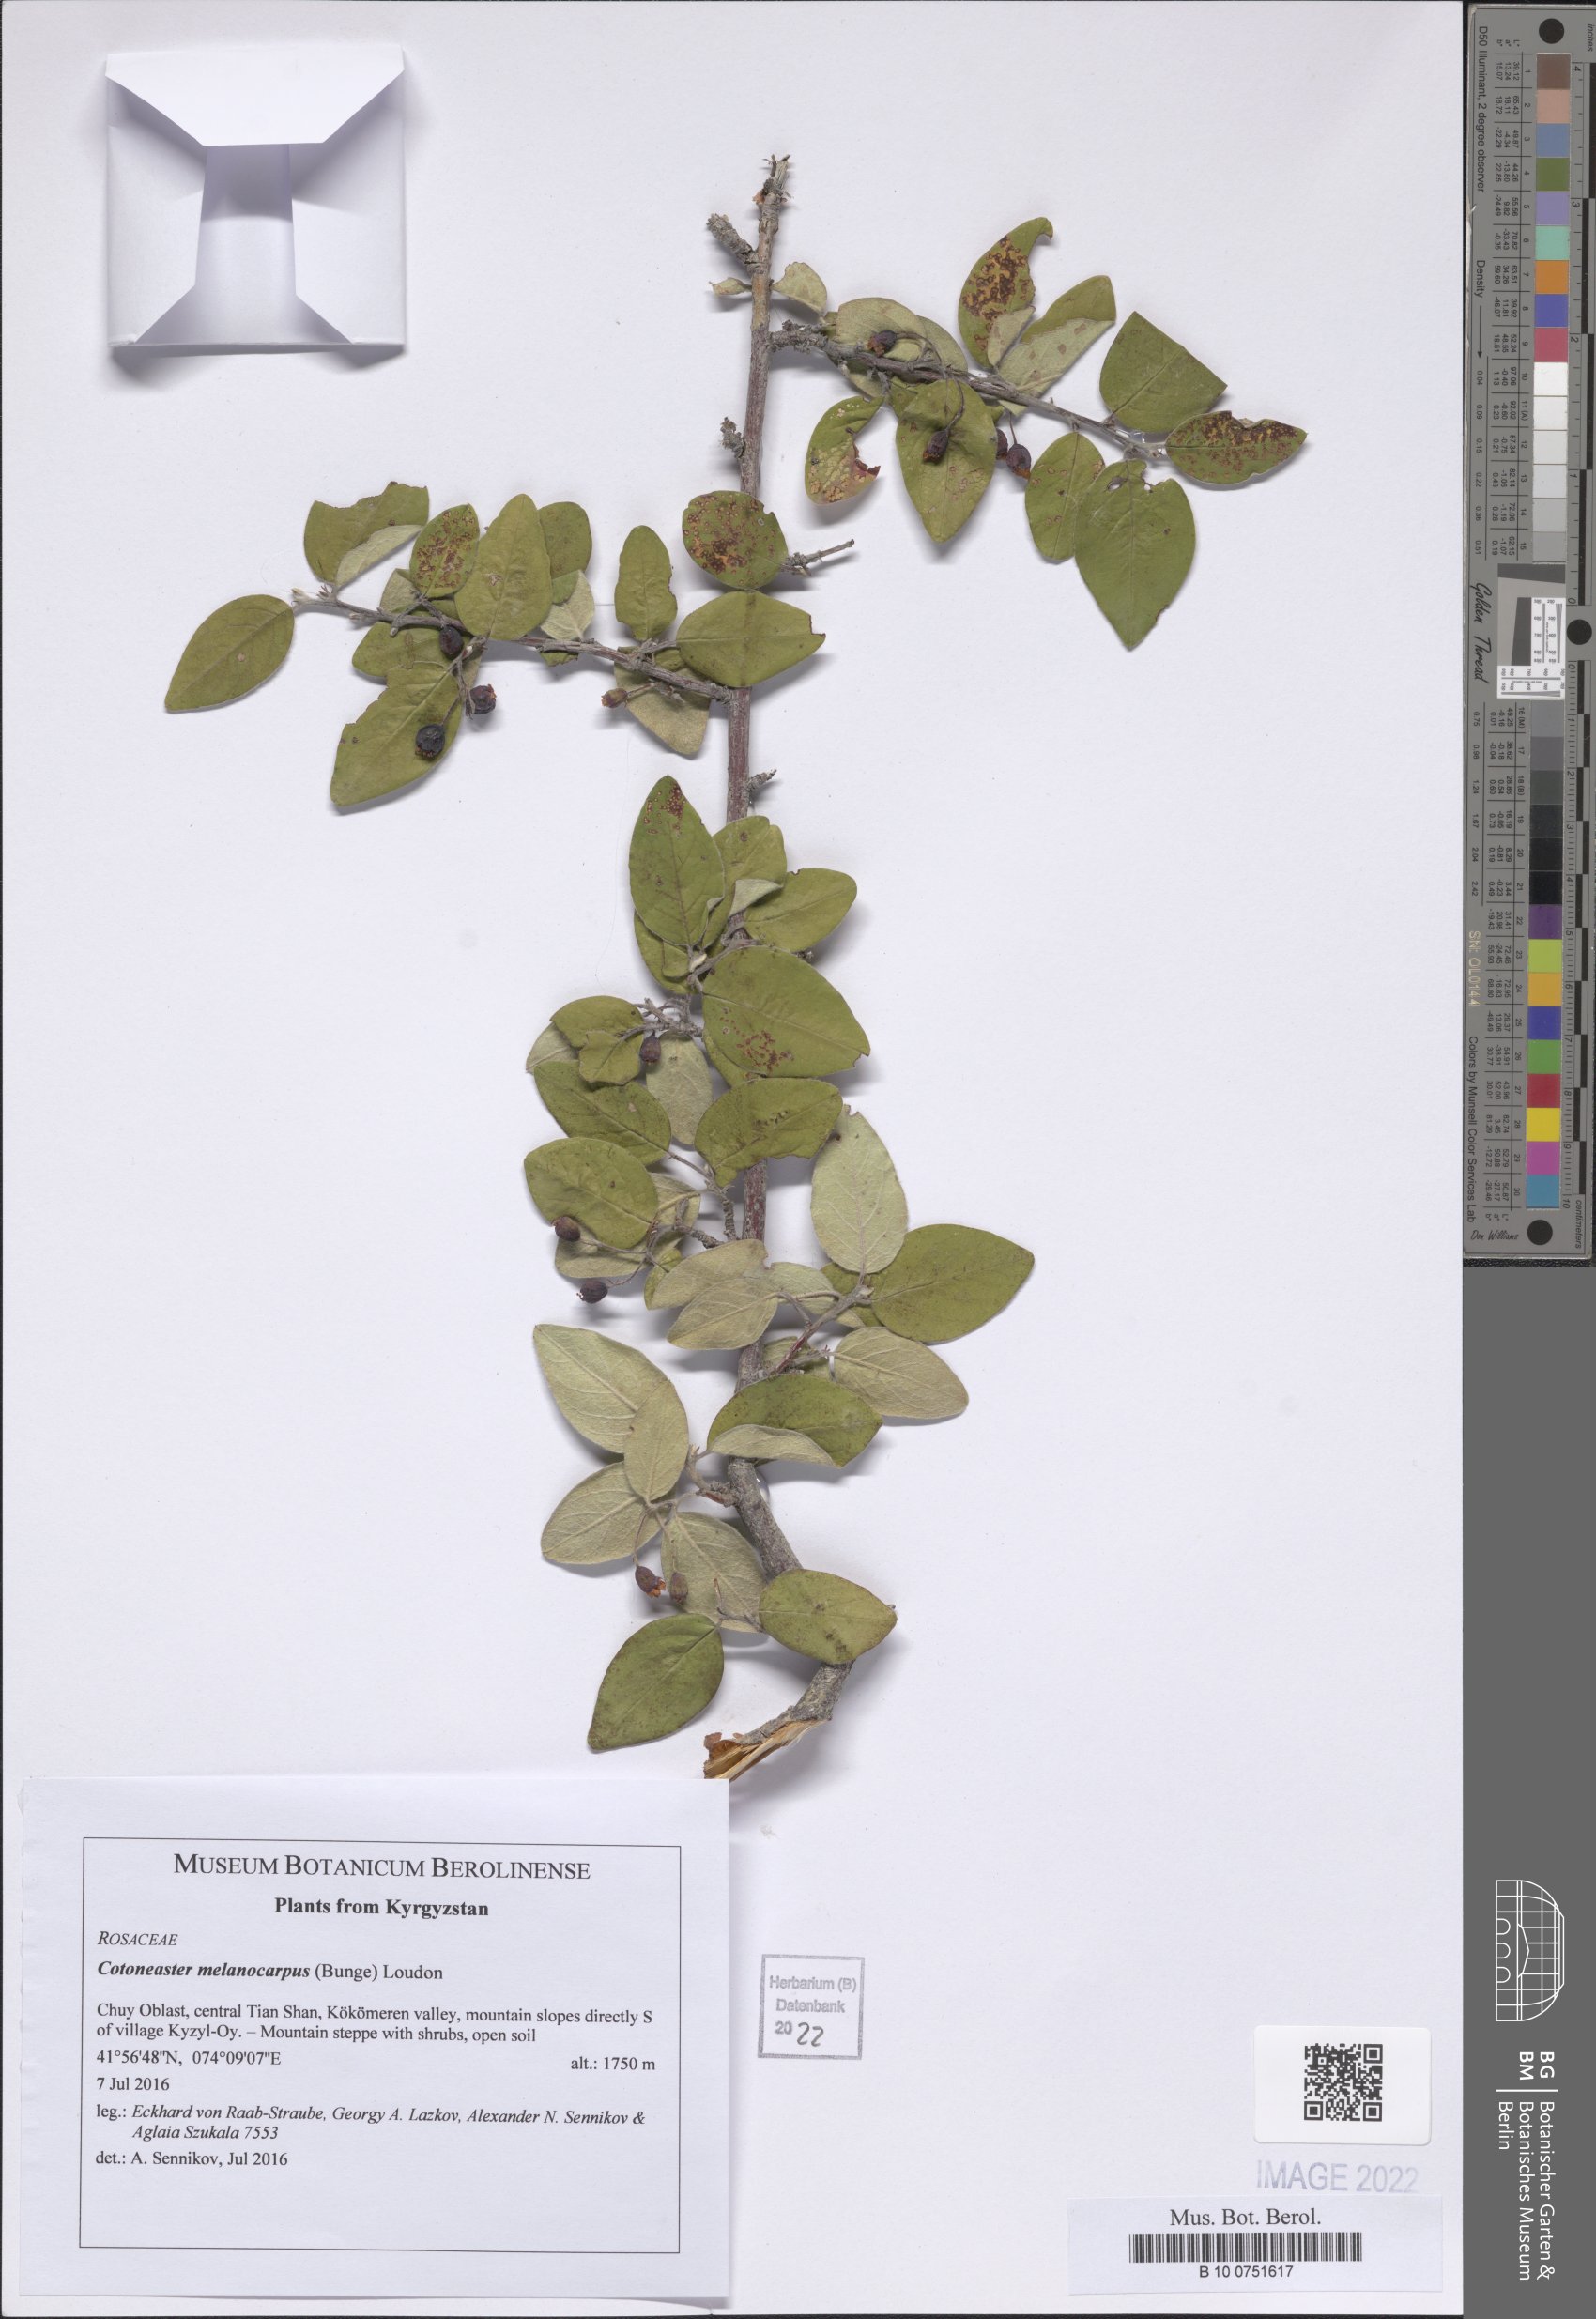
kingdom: Plantae
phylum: Tracheophyta
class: Magnoliopsida
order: Rosales
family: Rosaceae
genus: Cotoneaster
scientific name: Cotoneaster laxiflorus
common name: Black-fruit cotoneaster
